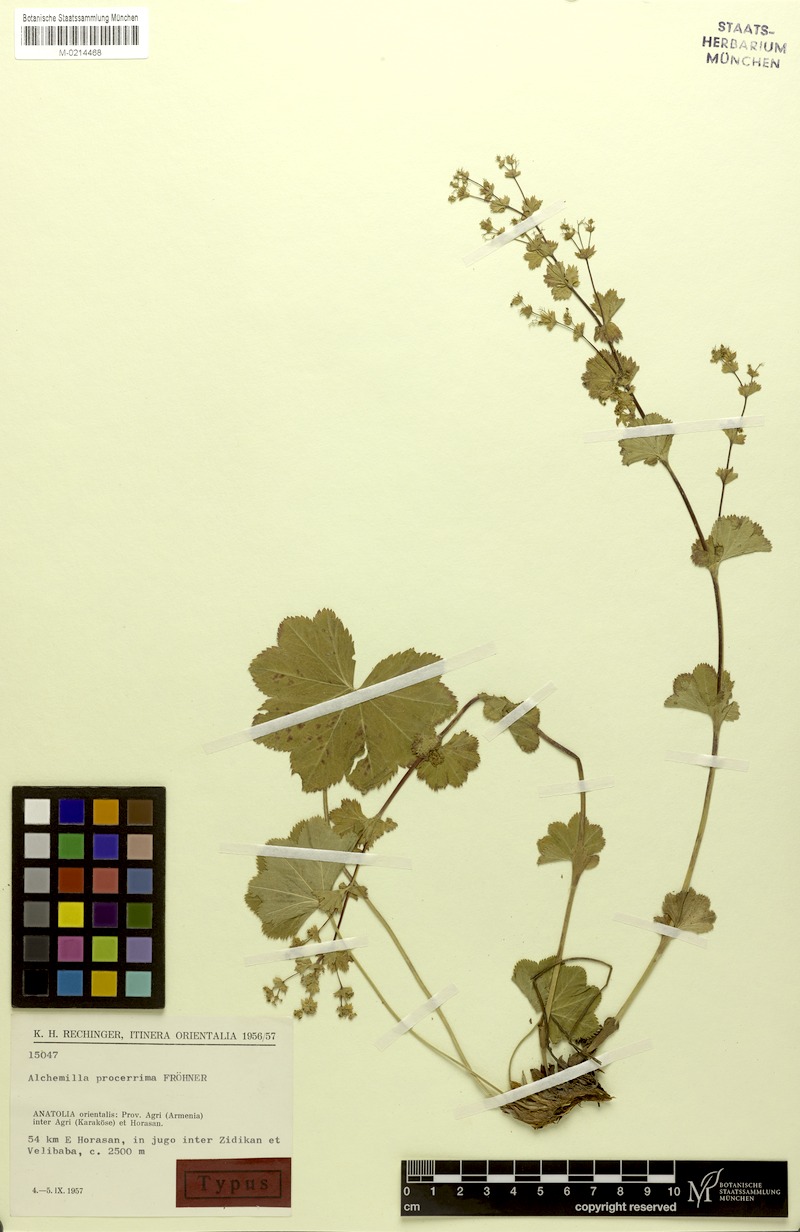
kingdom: Plantae
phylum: Tracheophyta
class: Magnoliopsida
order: Rosales
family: Rosaceae
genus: Alchemilla
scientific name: Alchemilla procerrima
